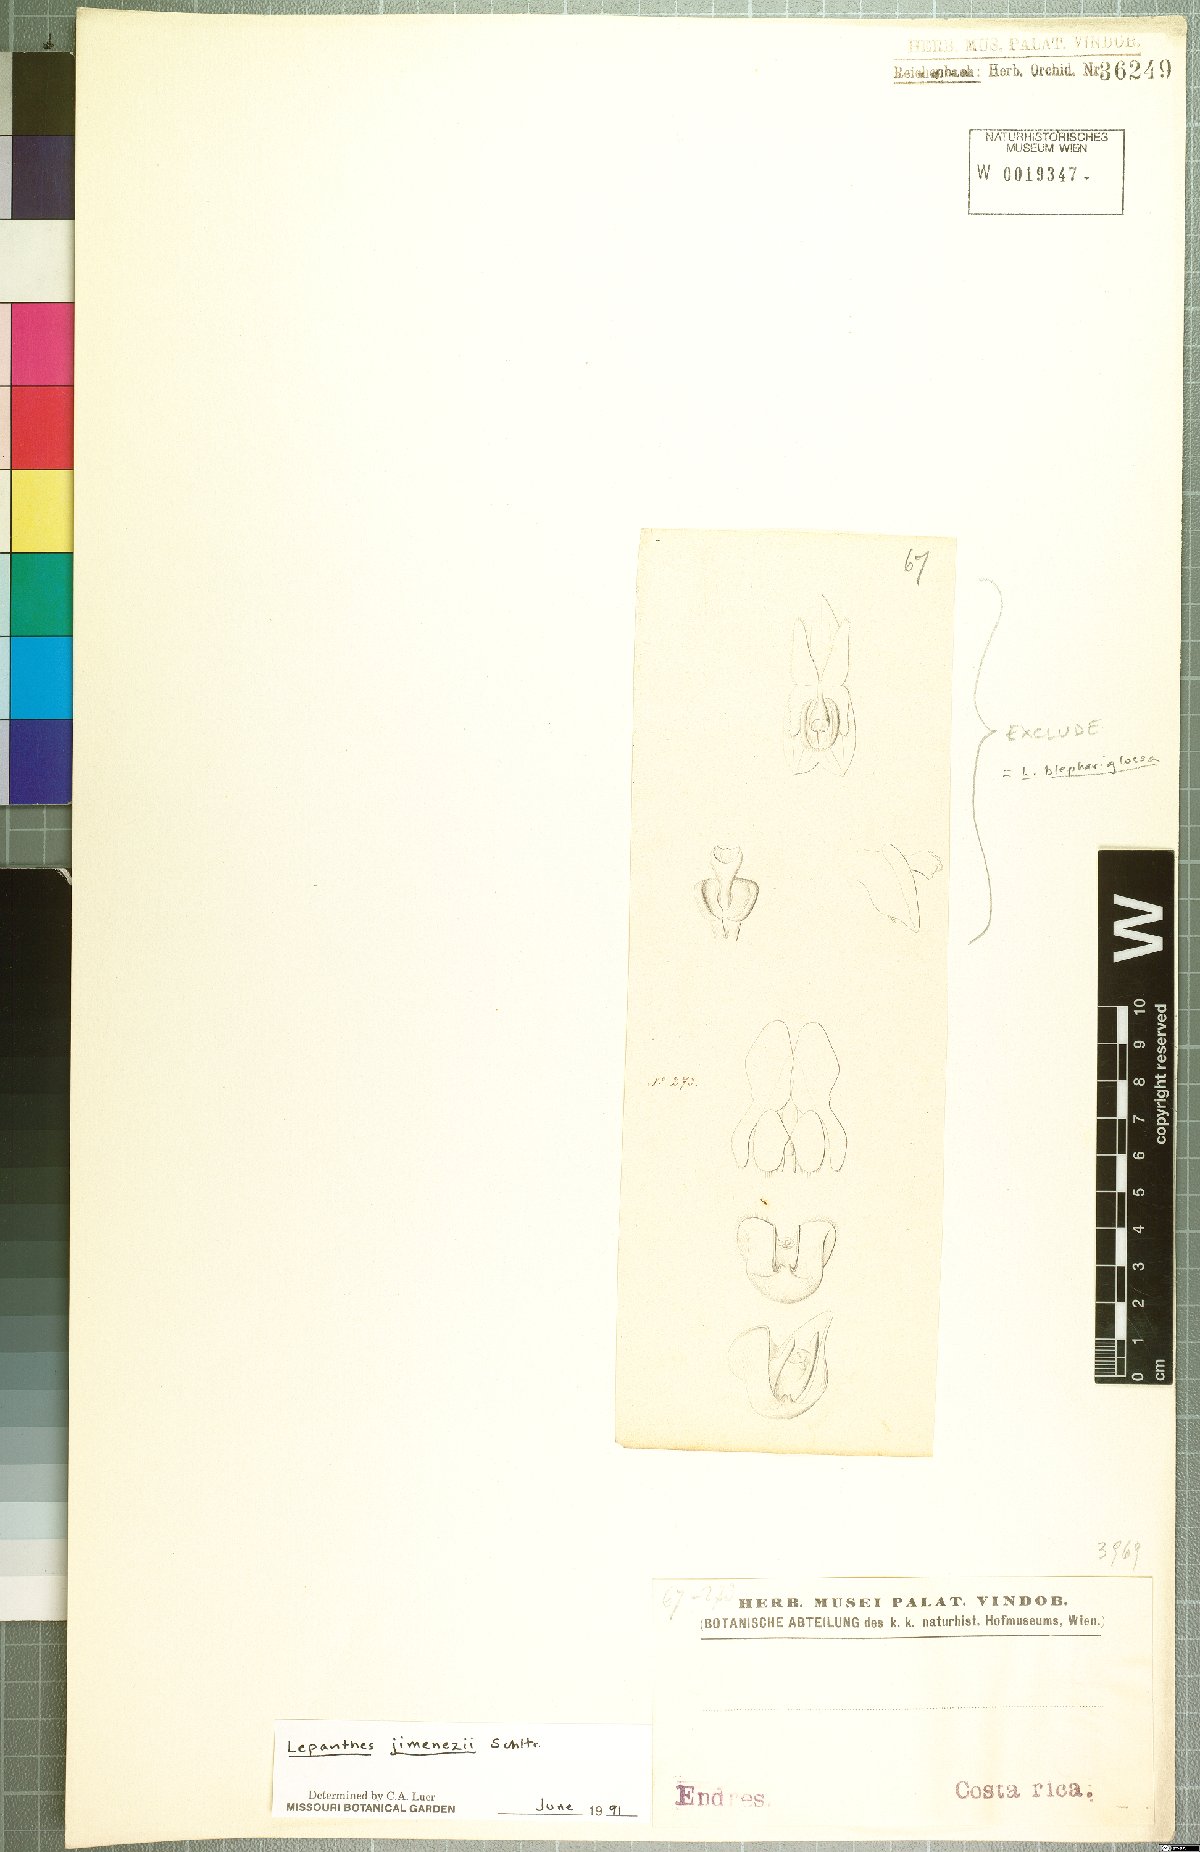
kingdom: Plantae
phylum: Tracheophyta
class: Liliopsida
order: Asparagales
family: Orchidaceae
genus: Lepanthes
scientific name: Lepanthes jimenezii
